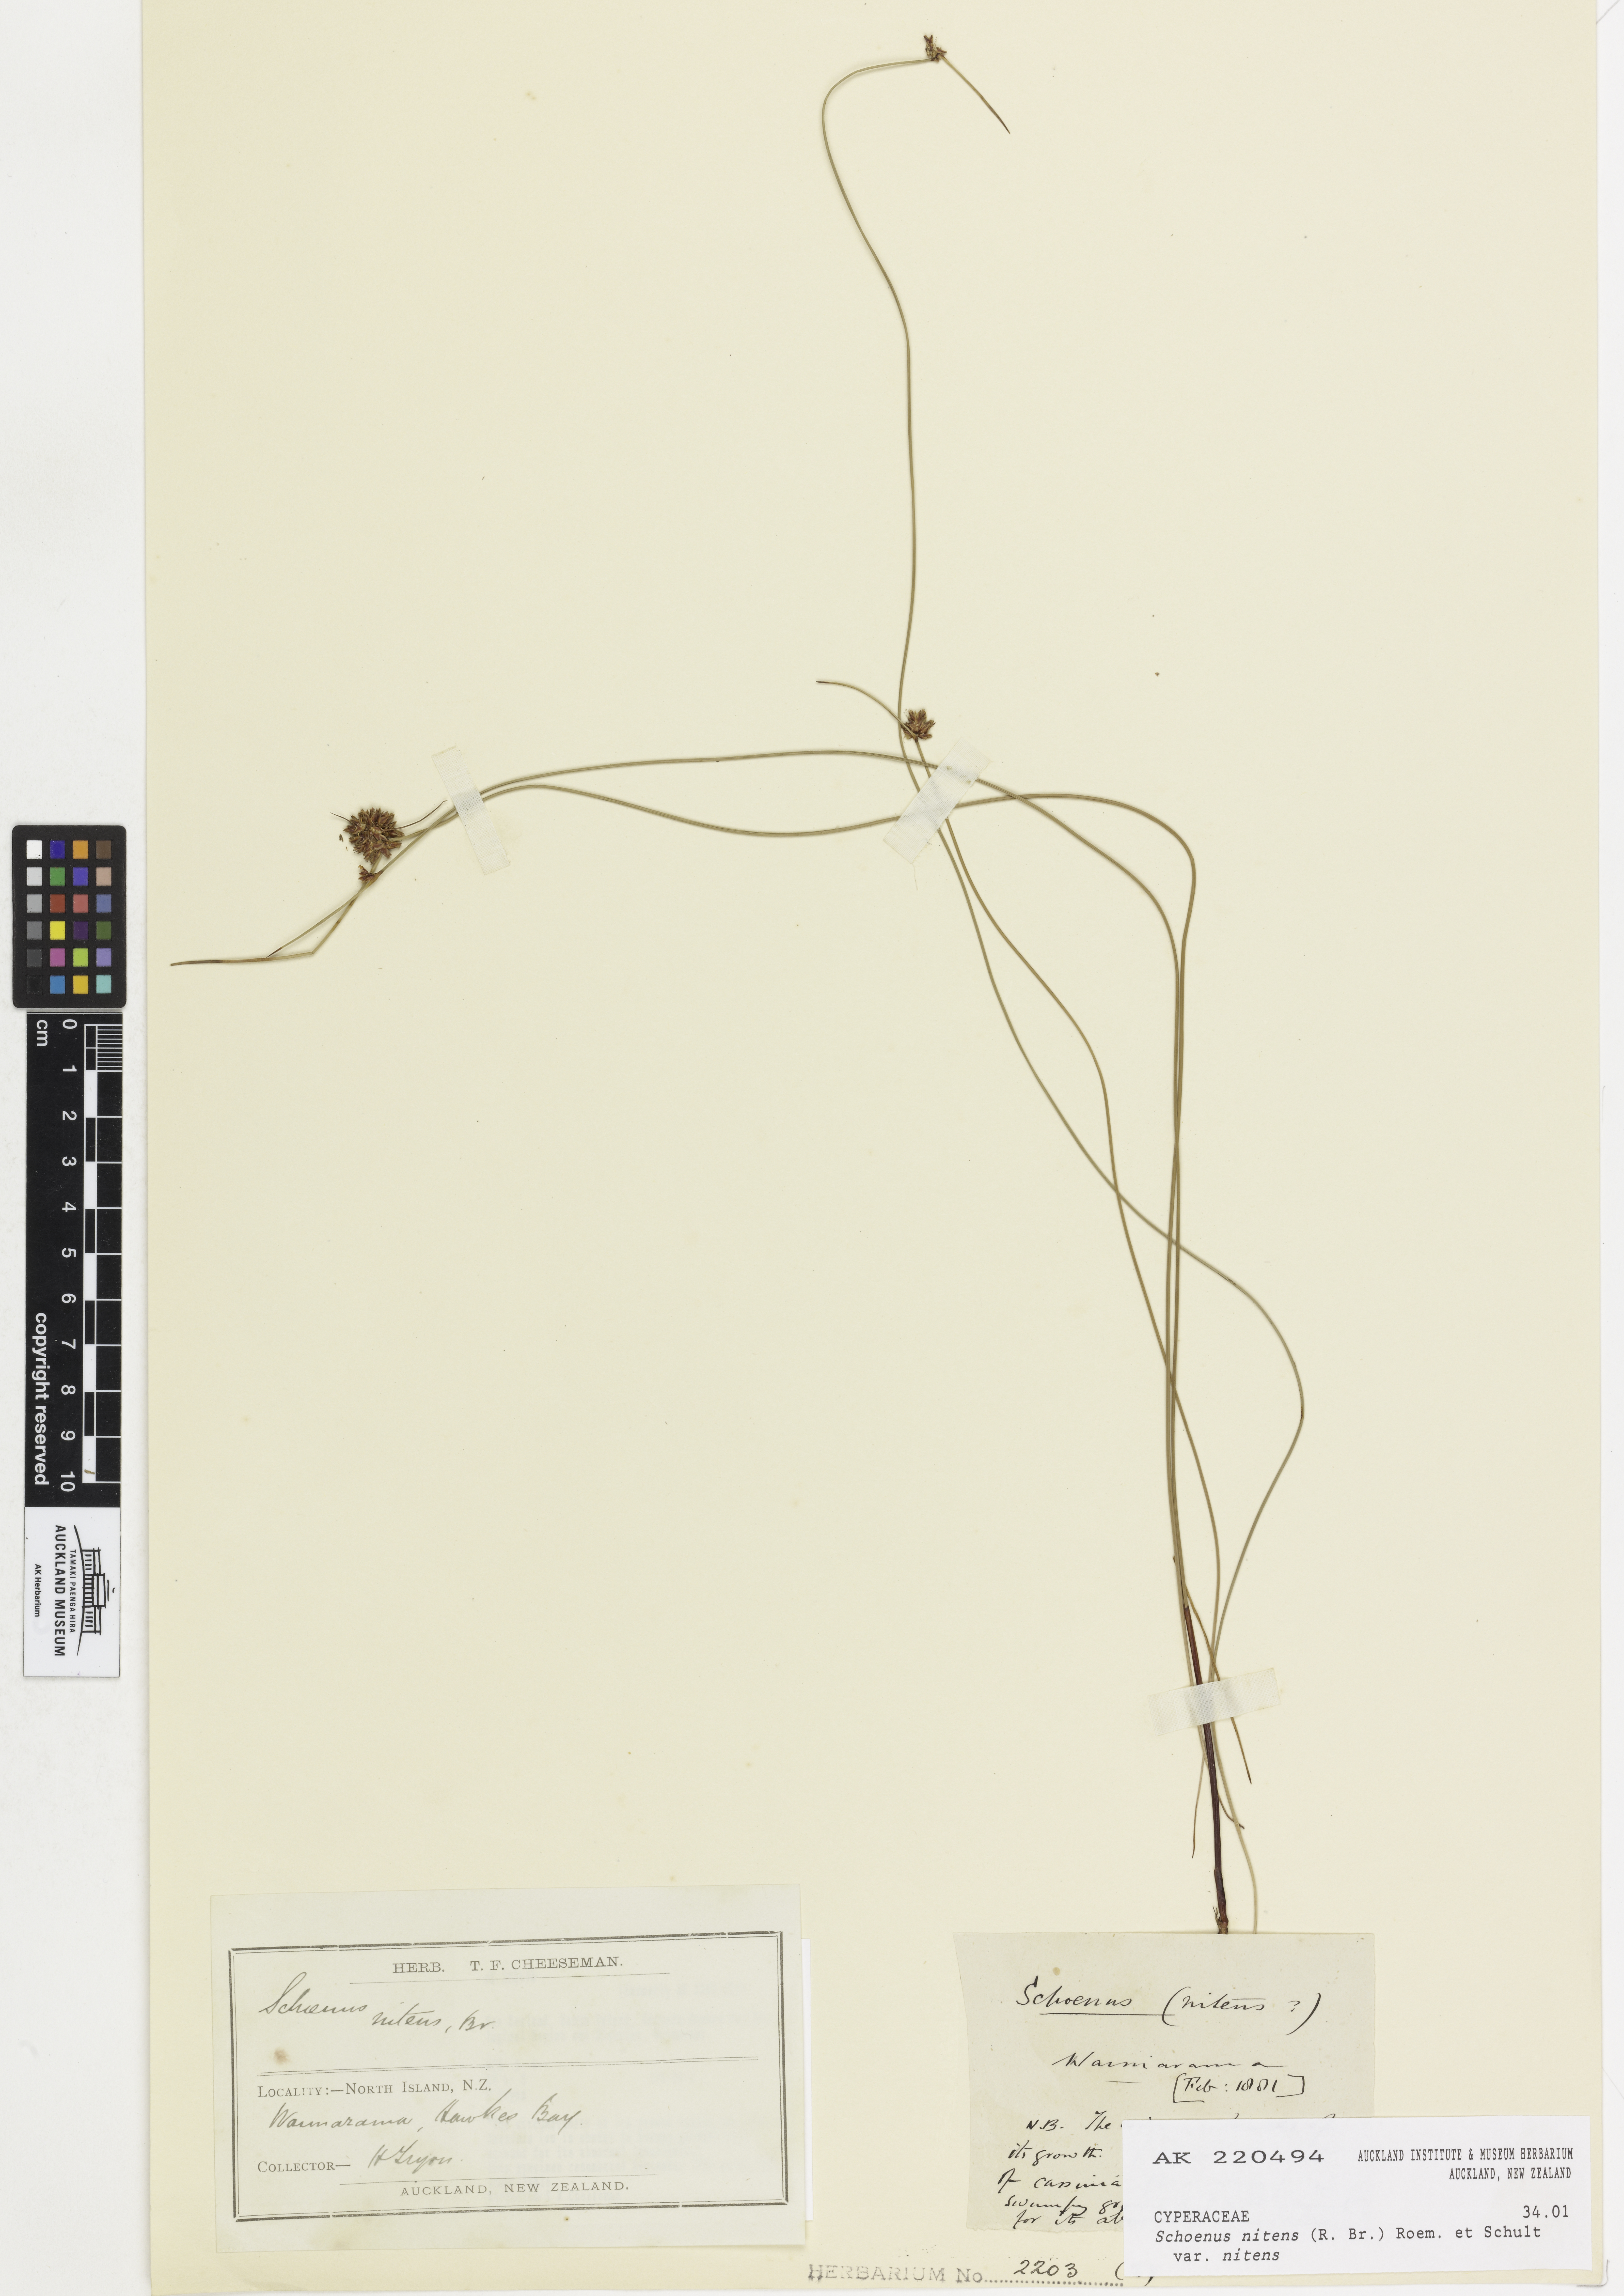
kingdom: Plantae
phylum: Tracheophyta
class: Liliopsida
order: Poales
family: Cyperaceae
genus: Schoenus
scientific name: Schoenus nitens
